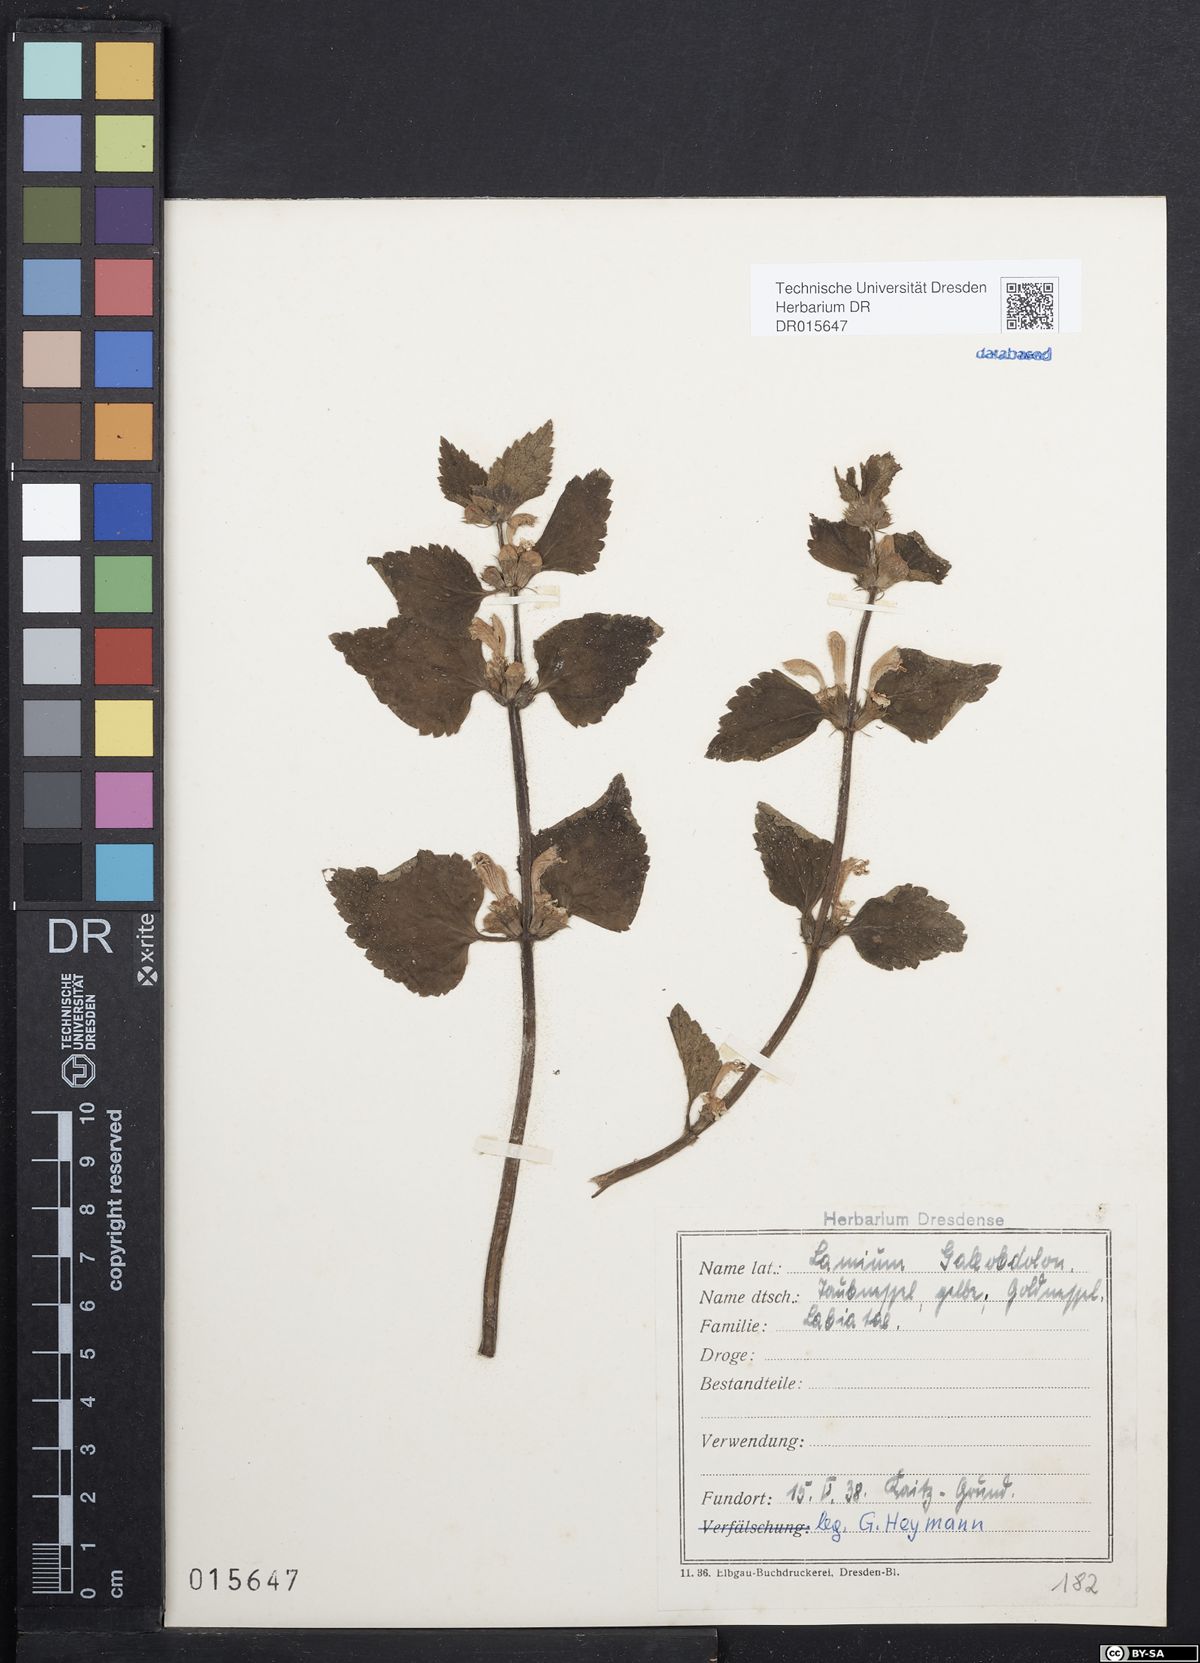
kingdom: Plantae
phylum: Tracheophyta
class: Magnoliopsida
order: Lamiales
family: Lamiaceae
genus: Lamium
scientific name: Lamium galeobdolon
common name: Yellow archangel
